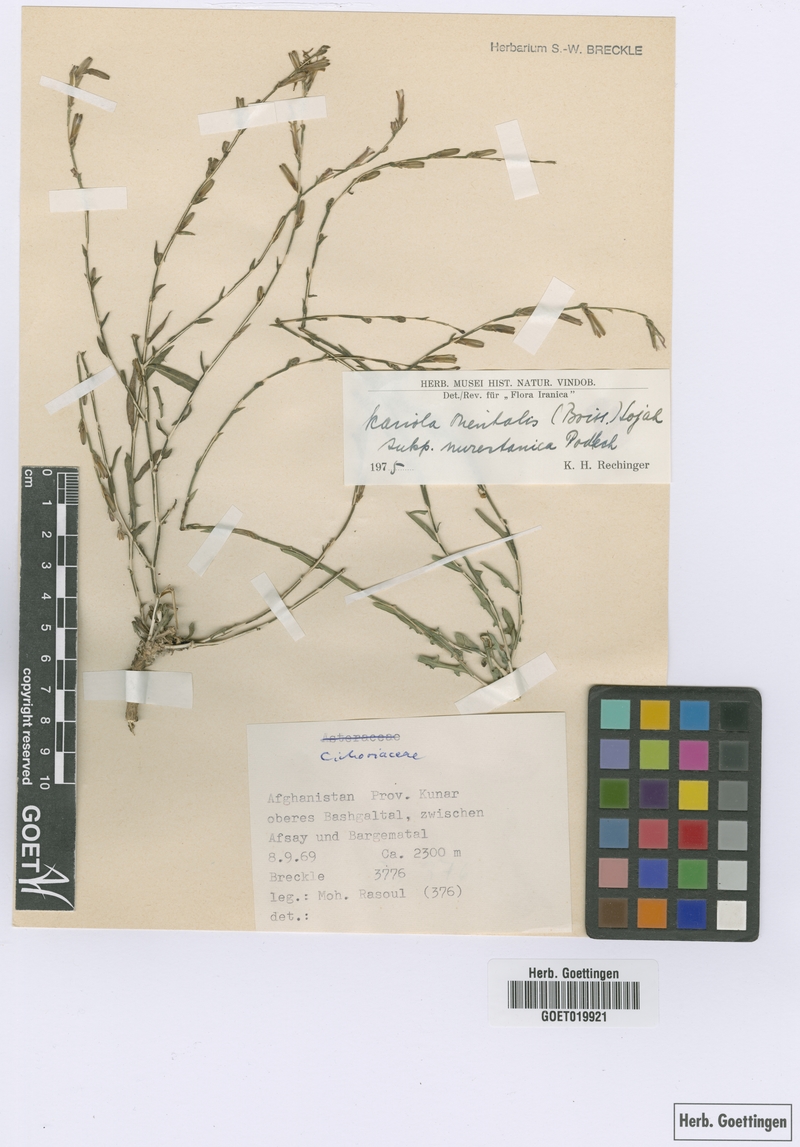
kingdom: Plantae
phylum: Tracheophyta
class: Magnoliopsida
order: Asterales
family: Asteraceae
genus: Lactuca
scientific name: Lactuca orientalis
